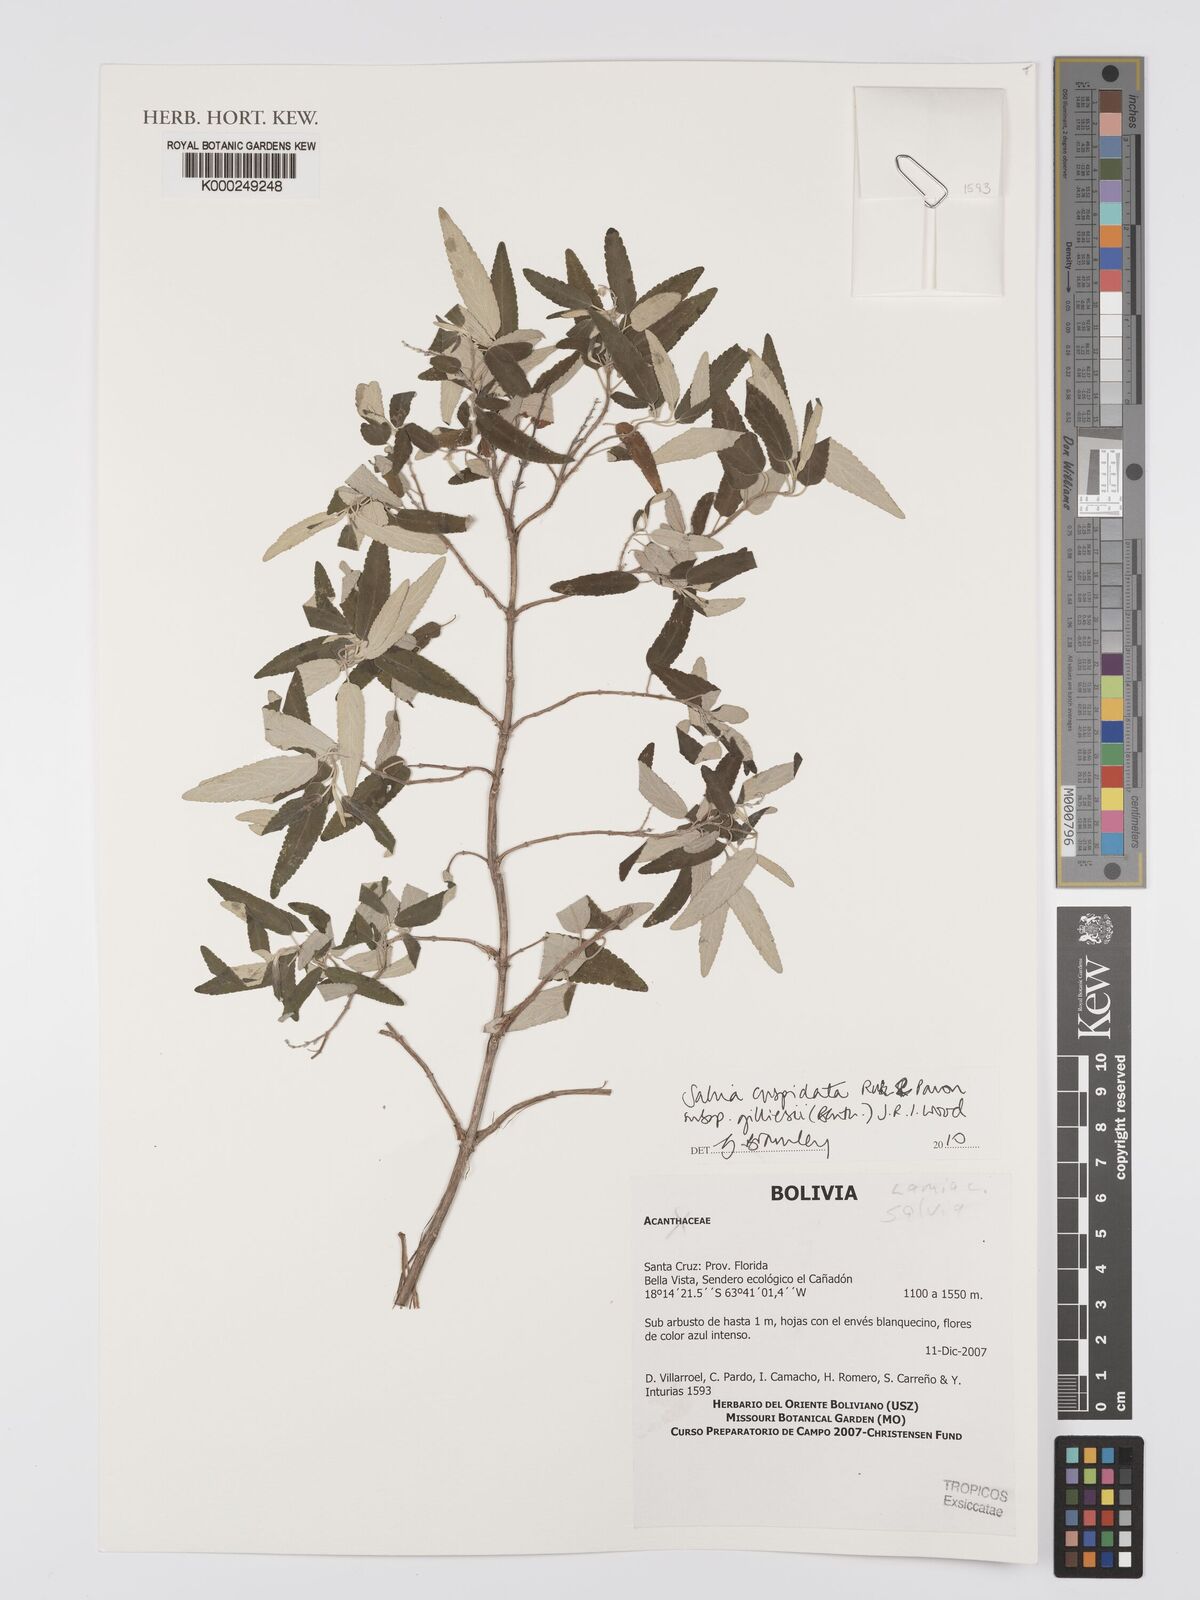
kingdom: Plantae
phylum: Tracheophyta
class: Magnoliopsida
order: Lamiales
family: Lamiaceae
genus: Salvia
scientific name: Salvia cuspidata
